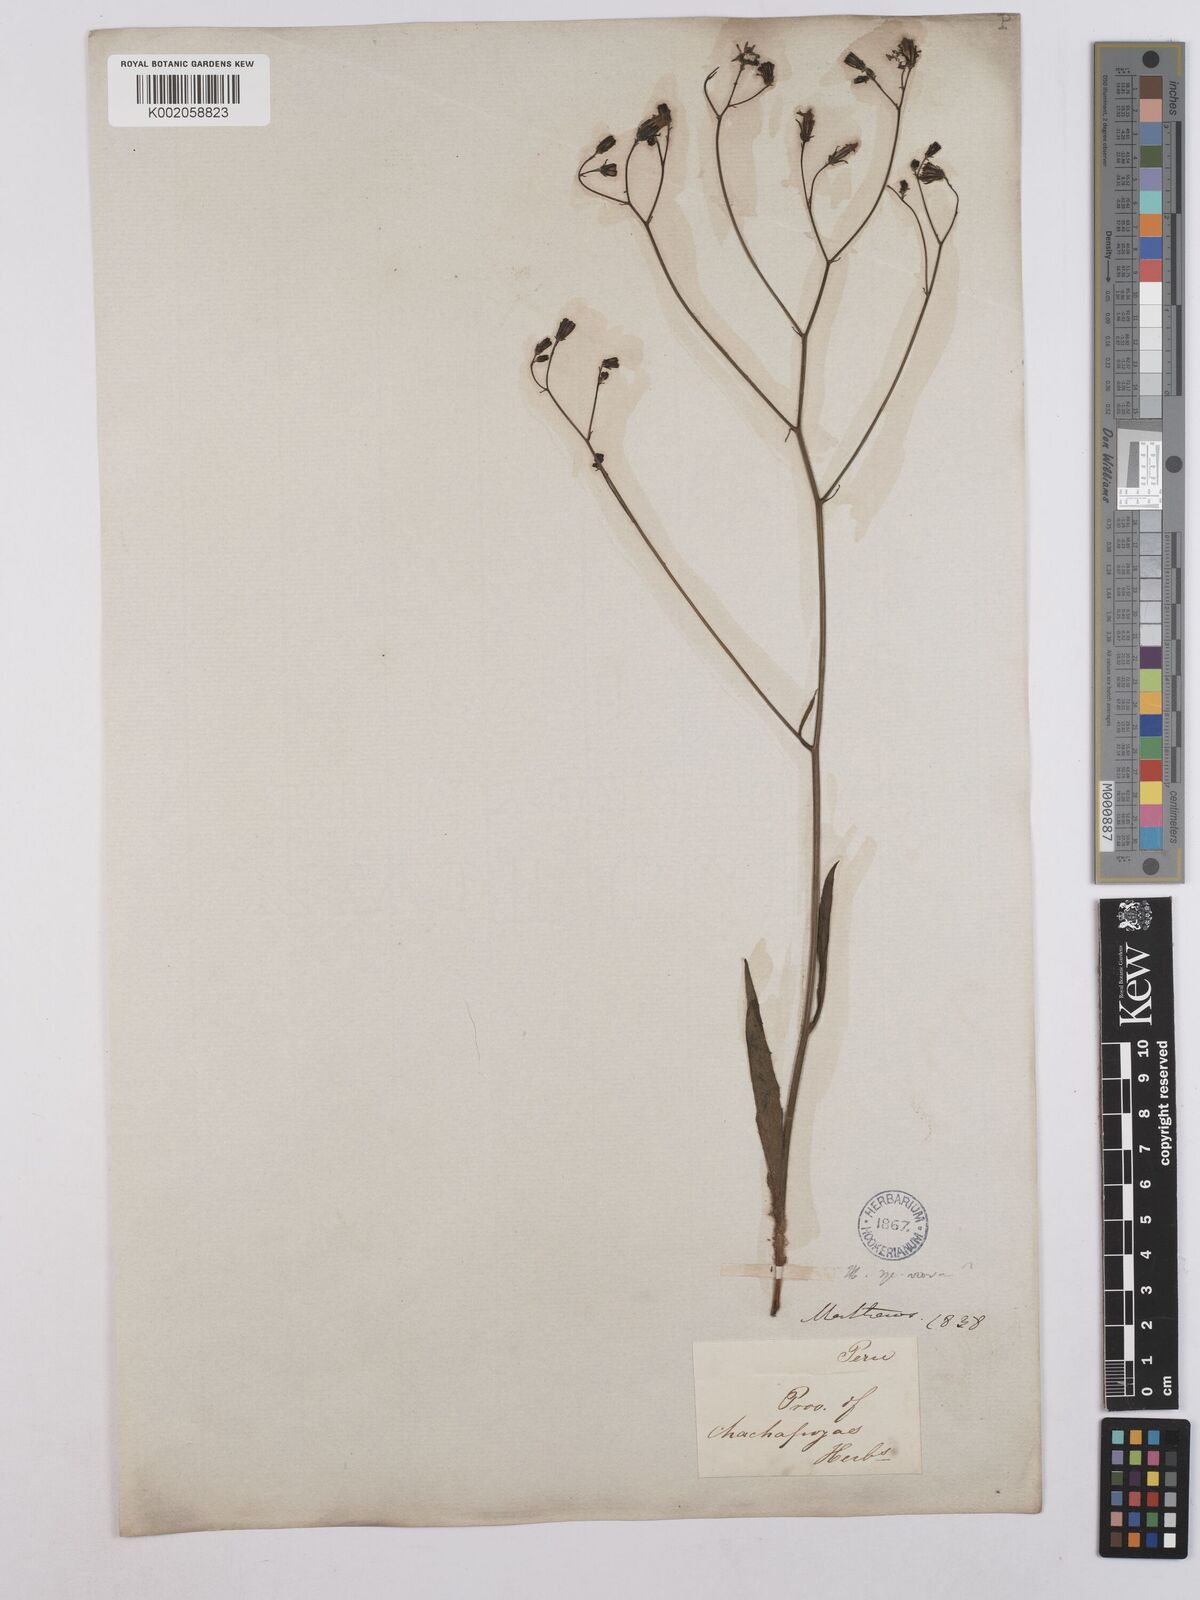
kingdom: Plantae
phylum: Tracheophyta
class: Magnoliopsida
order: Asterales
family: Asteraceae
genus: Hieracium
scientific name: Hieracium
